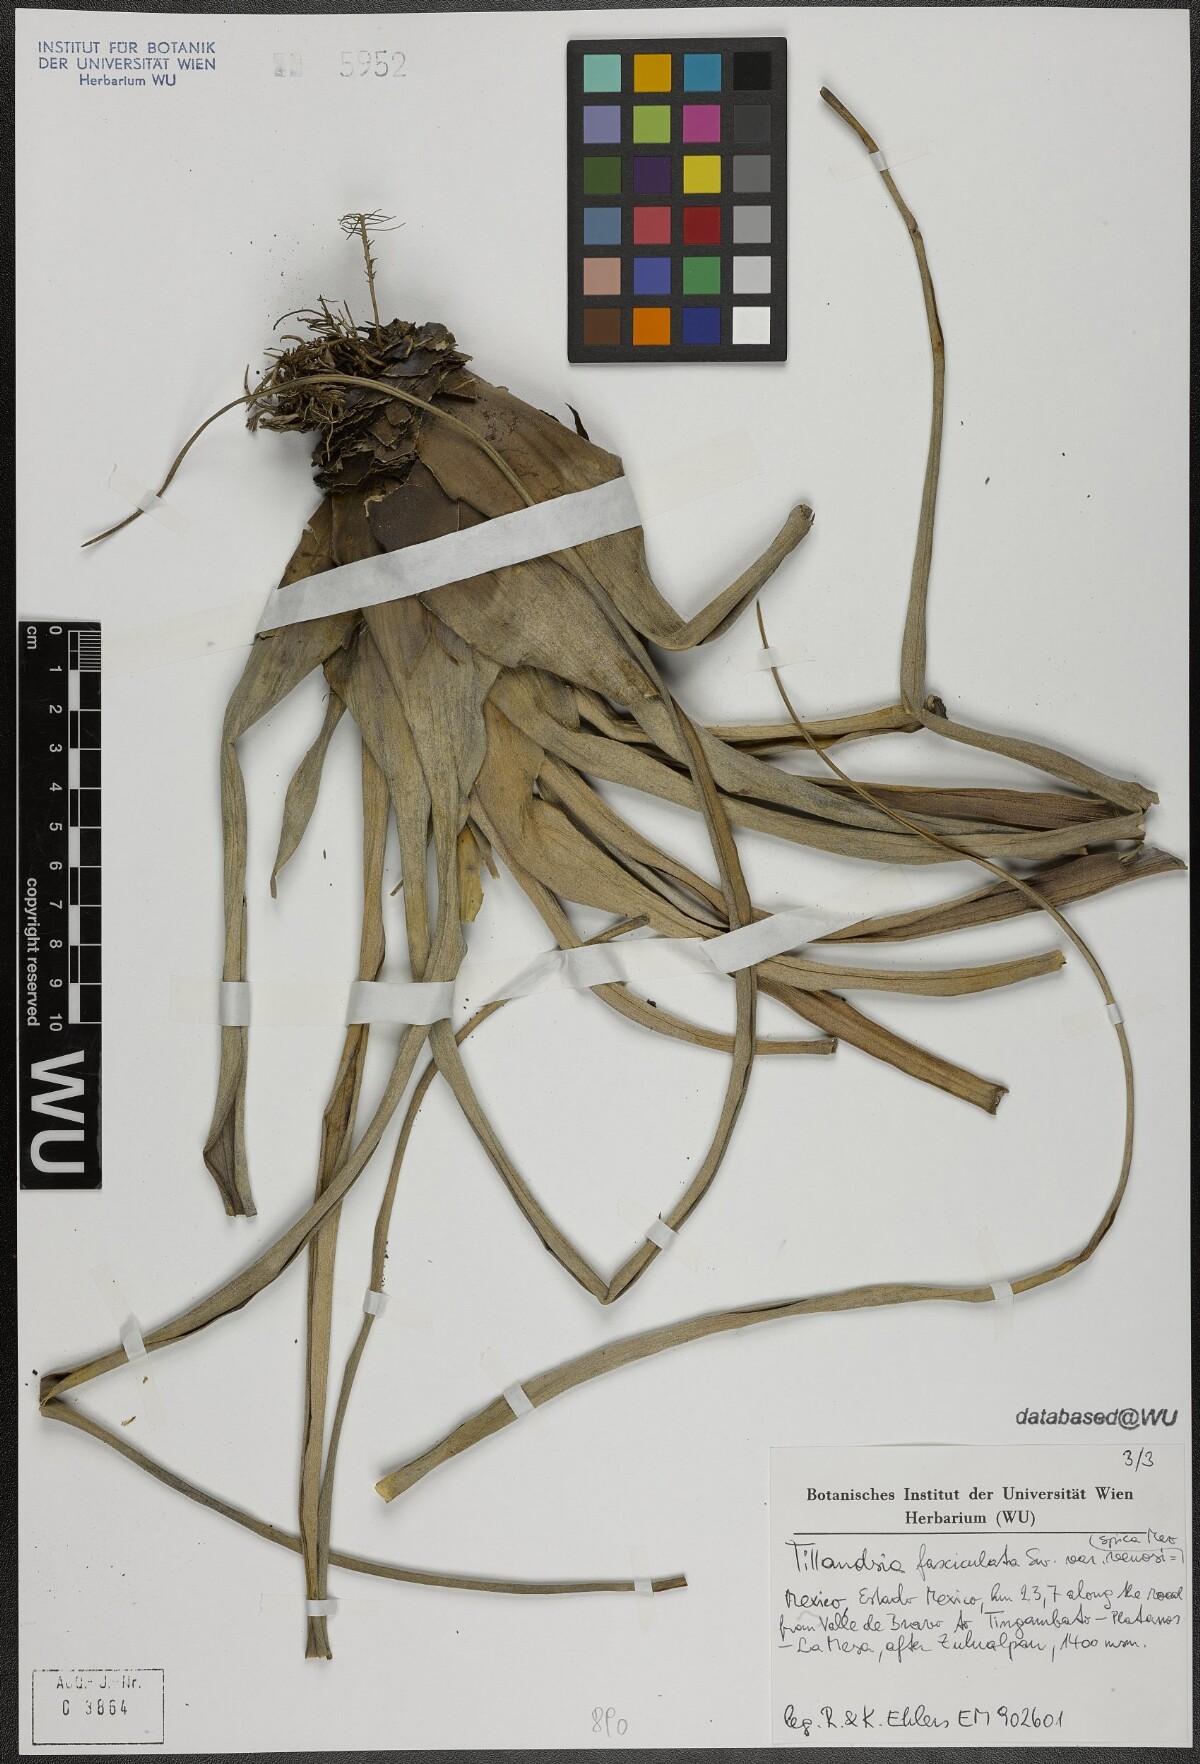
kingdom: Plantae
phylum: Tracheophyta
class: Liliopsida
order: Poales
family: Bromeliaceae
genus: Tillandsia
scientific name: Tillandsia fasciculata
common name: Giant airplant
